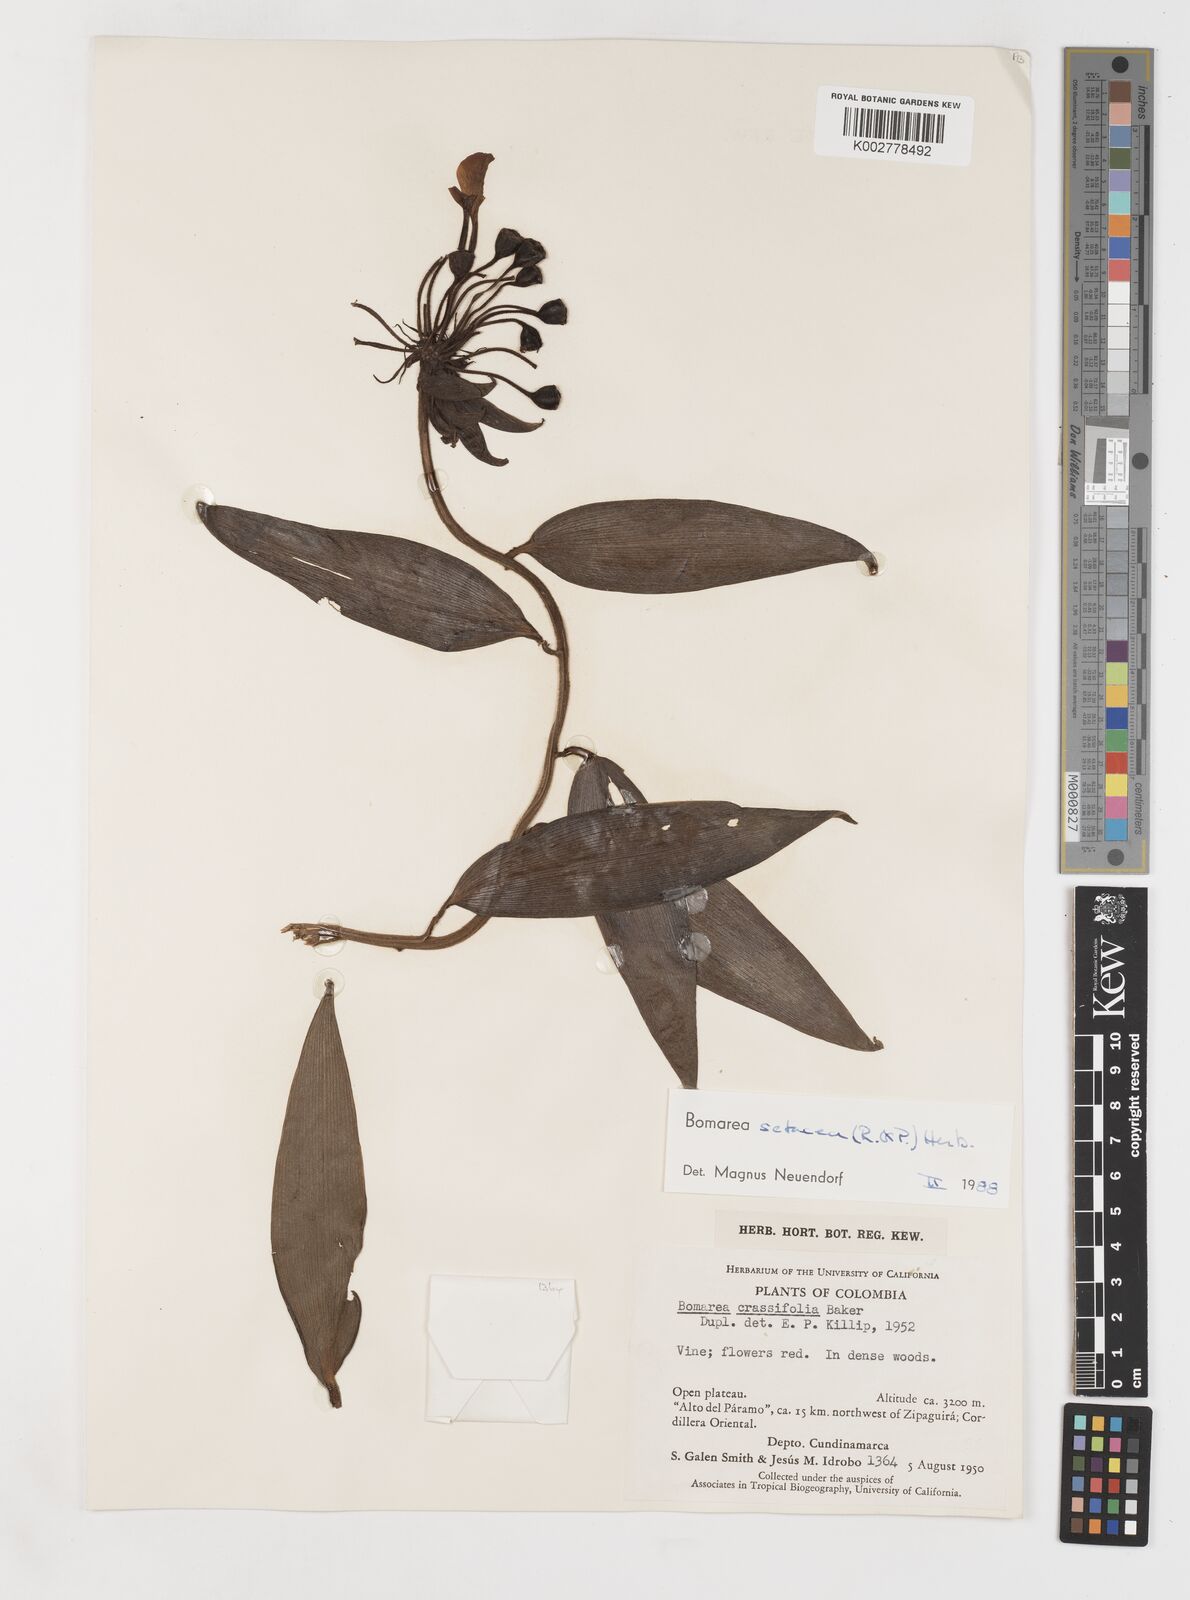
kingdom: Plantae
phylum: Tracheophyta
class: Liliopsida
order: Liliales
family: Alstroemeriaceae
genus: Bomarea
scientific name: Bomarea setacea
